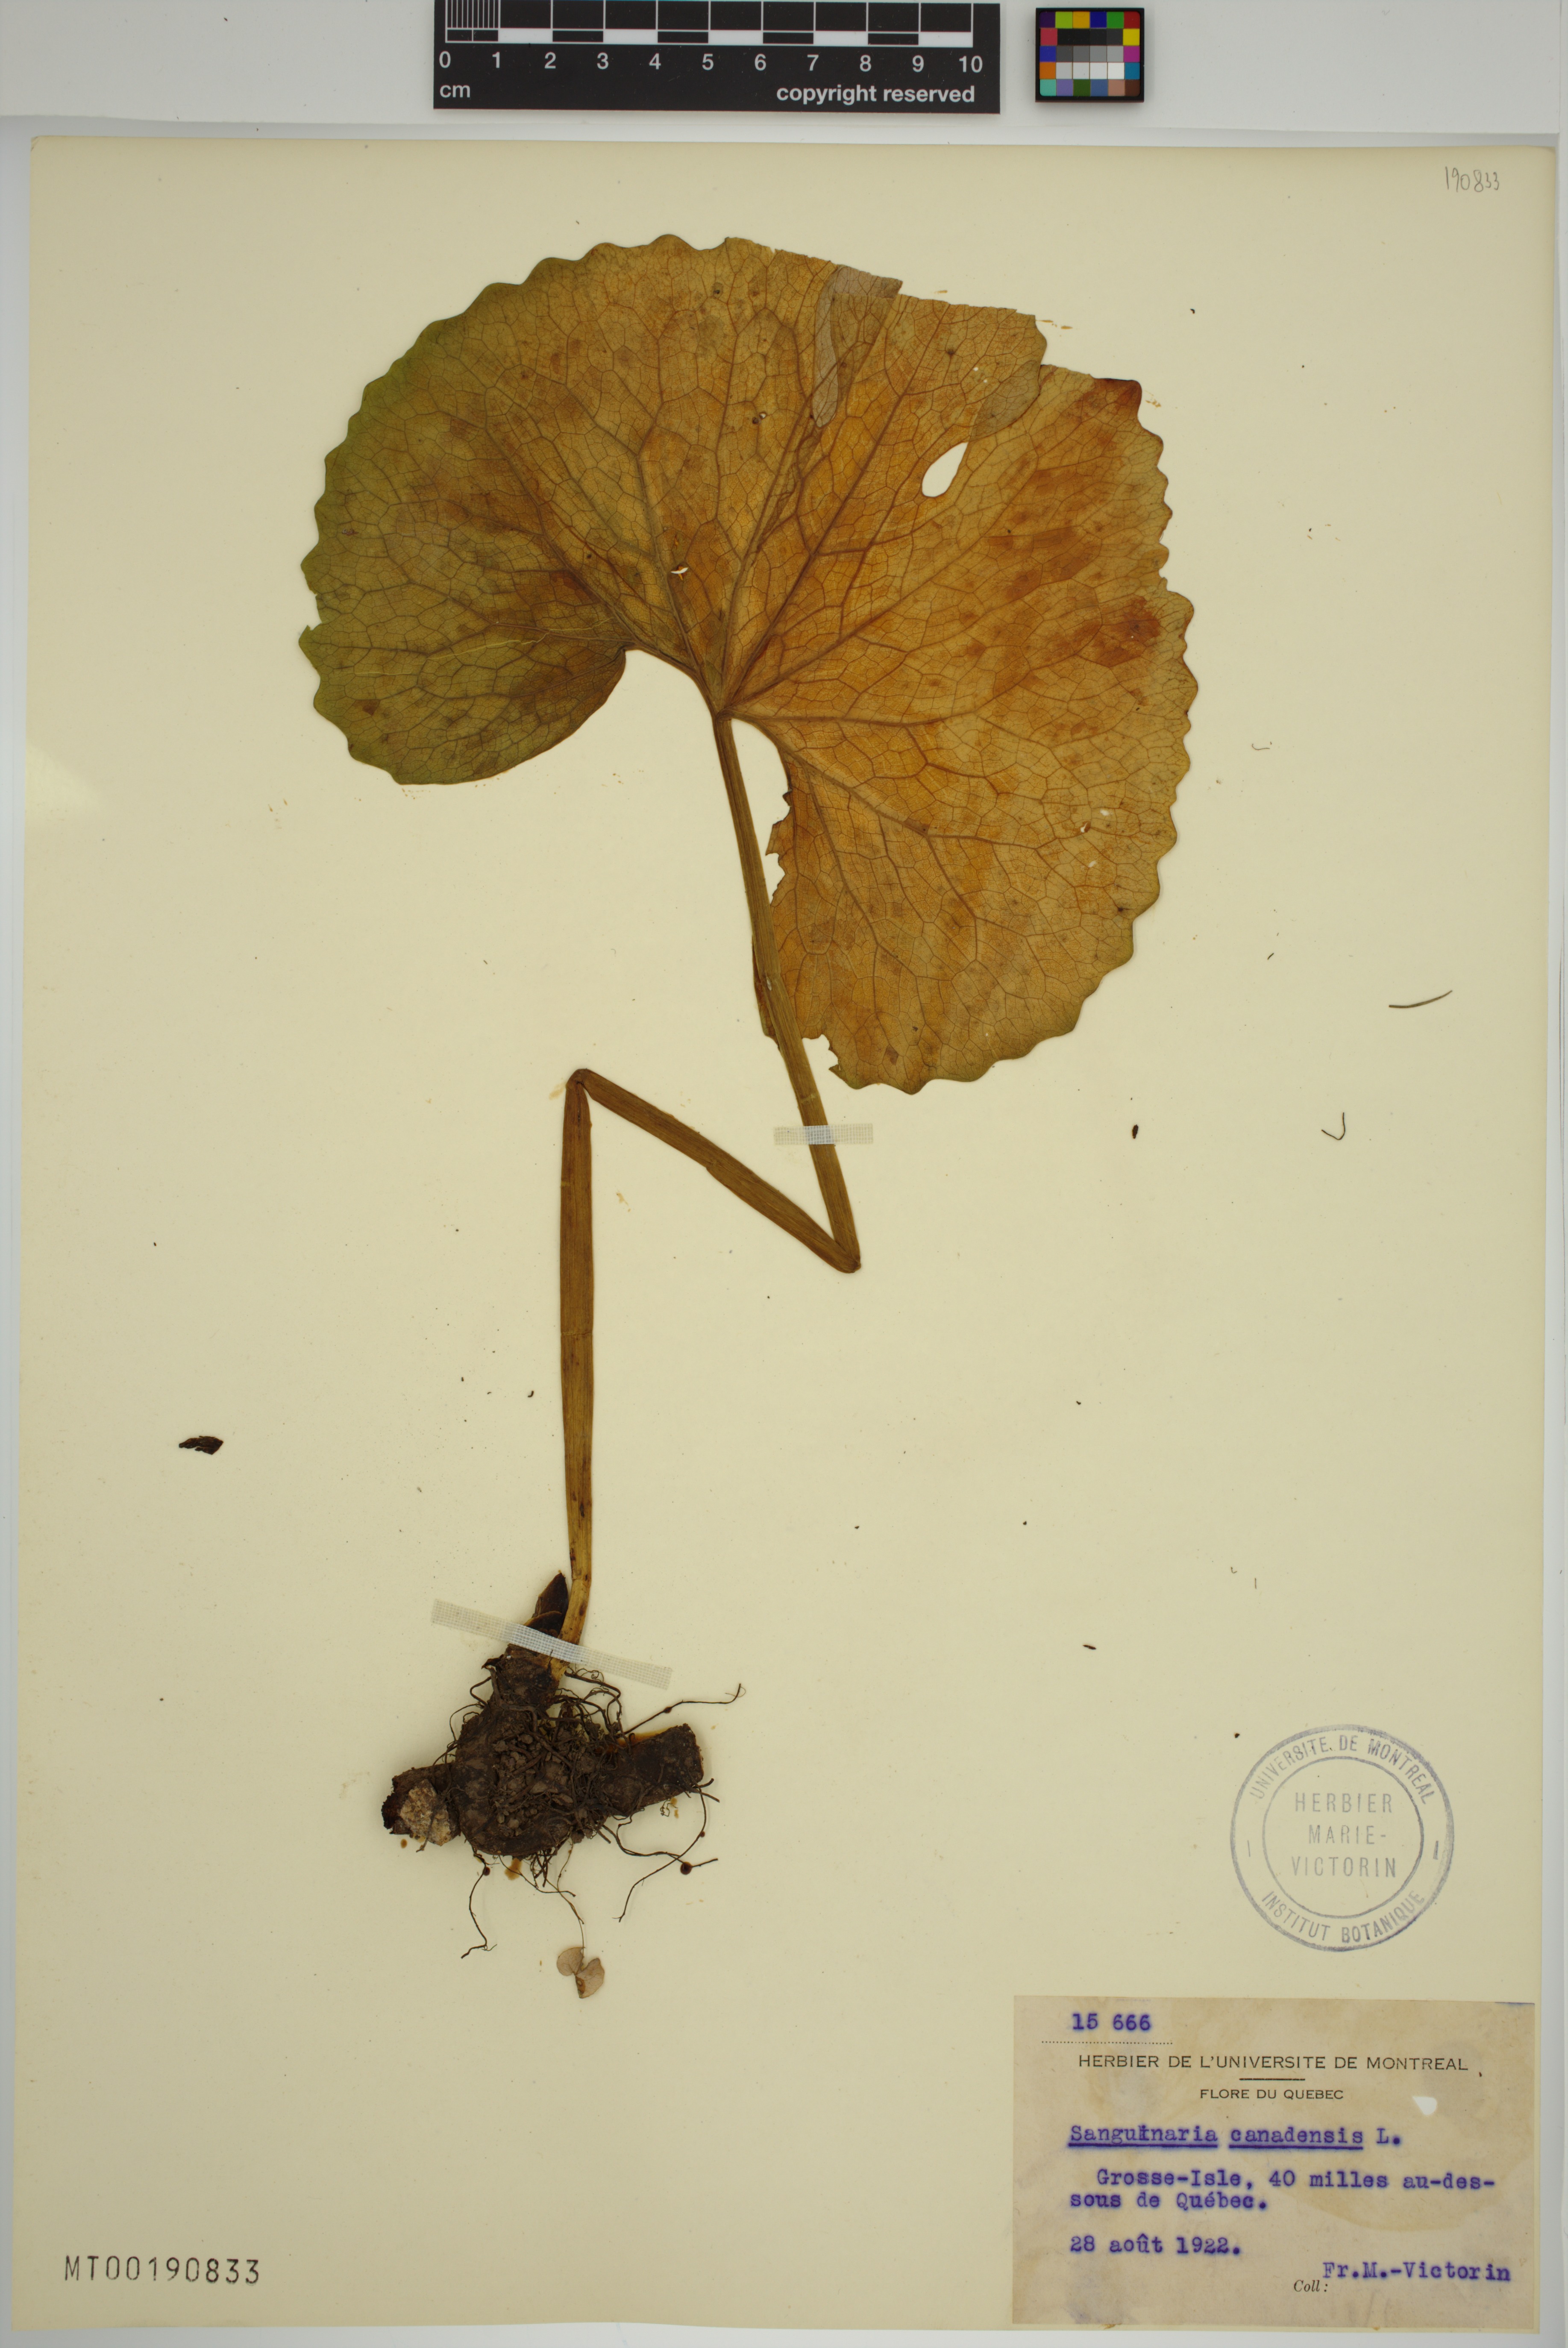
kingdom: Plantae
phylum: Tracheophyta
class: Magnoliopsida
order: Ranunculales
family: Papaveraceae
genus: Sanguinaria
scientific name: Sanguinaria canadensis
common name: Bloodroot
